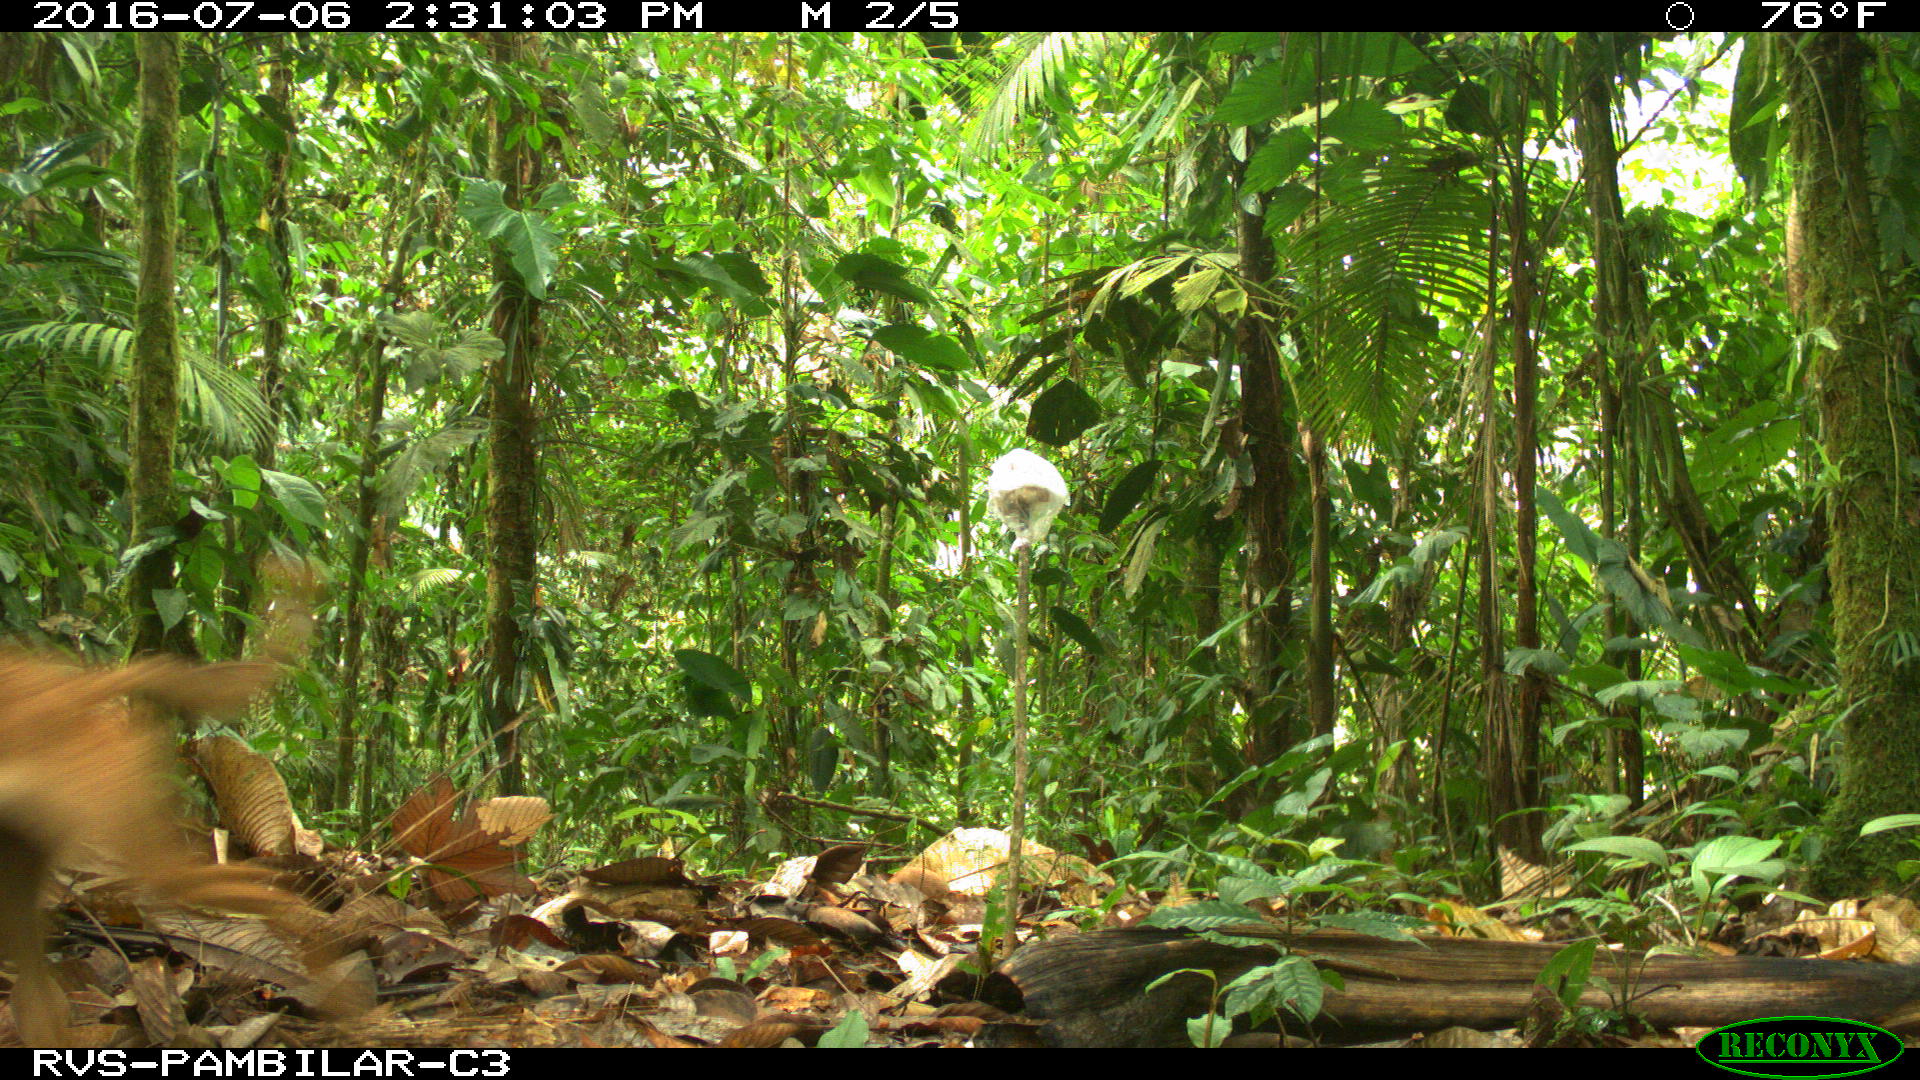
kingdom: Animalia
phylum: Chordata
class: Mammalia
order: Carnivora
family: Canidae
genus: Canis
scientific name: Canis lupus
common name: Gray wolf
